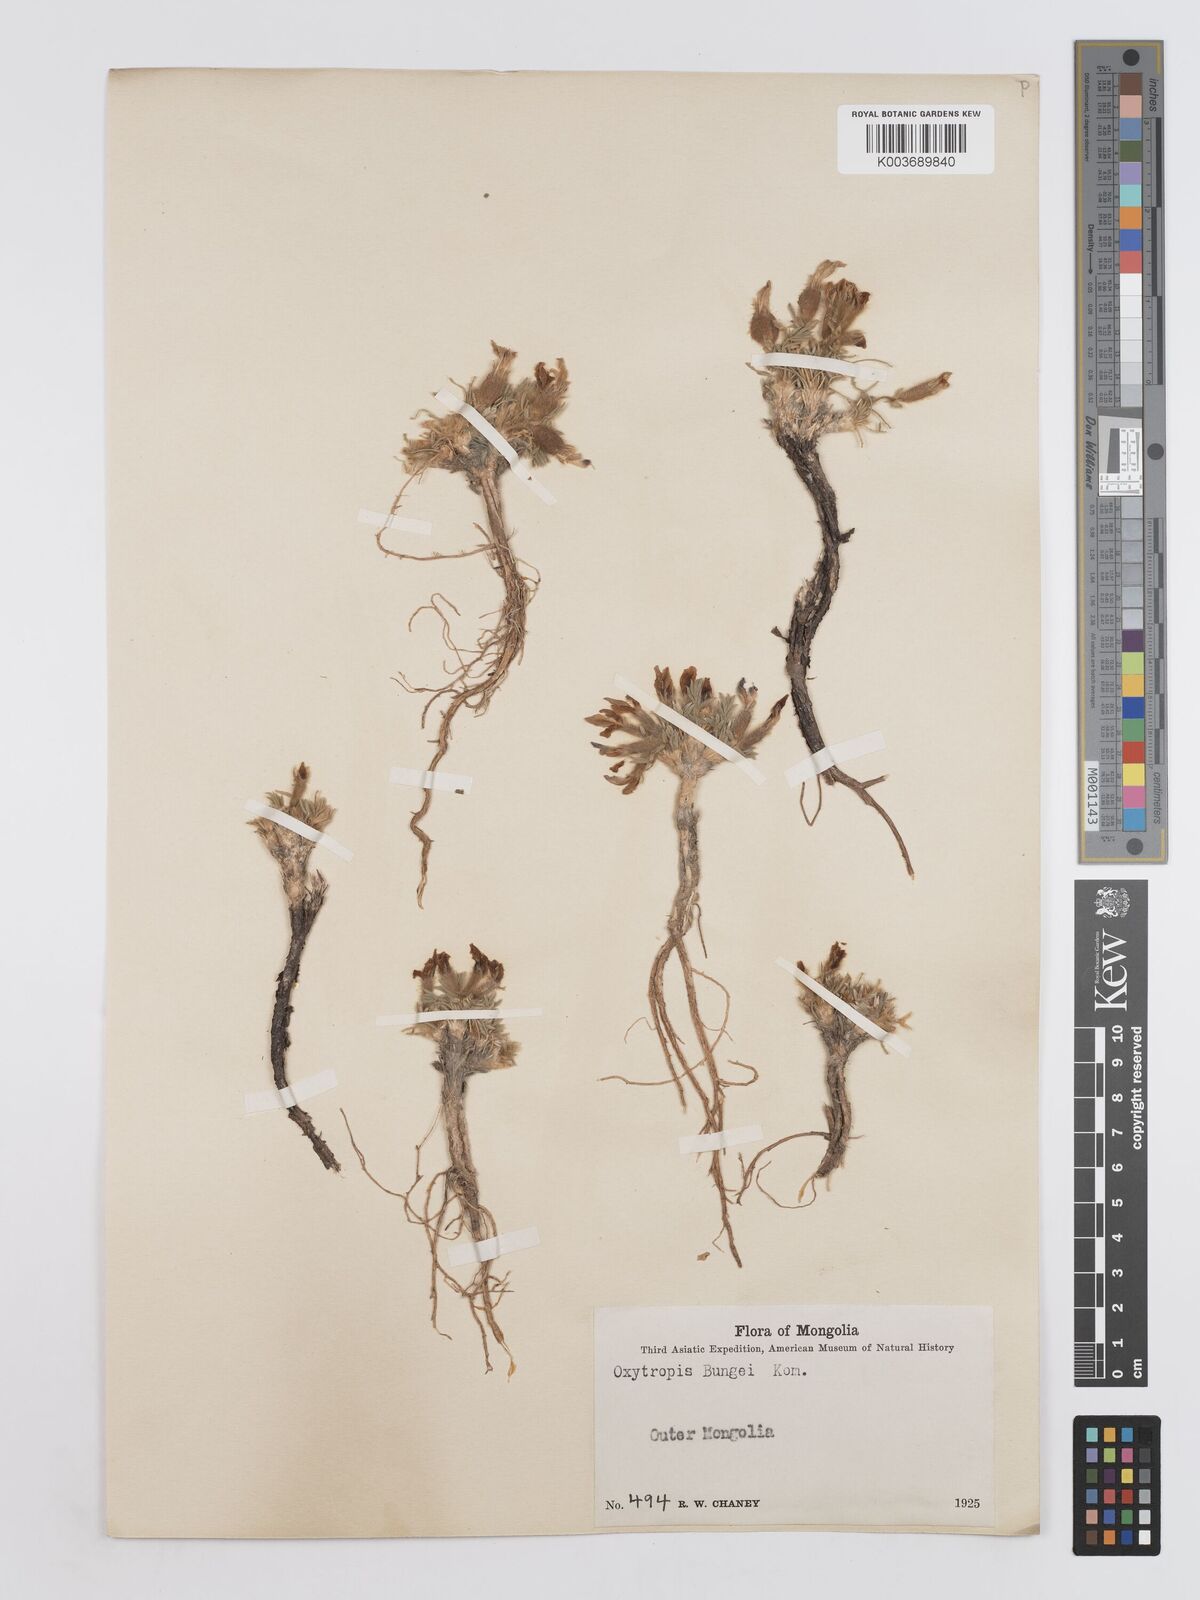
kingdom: Plantae
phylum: Tracheophyta
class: Magnoliopsida
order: Fabales
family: Fabaceae
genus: Oxytropis
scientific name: Oxytropis bungei
